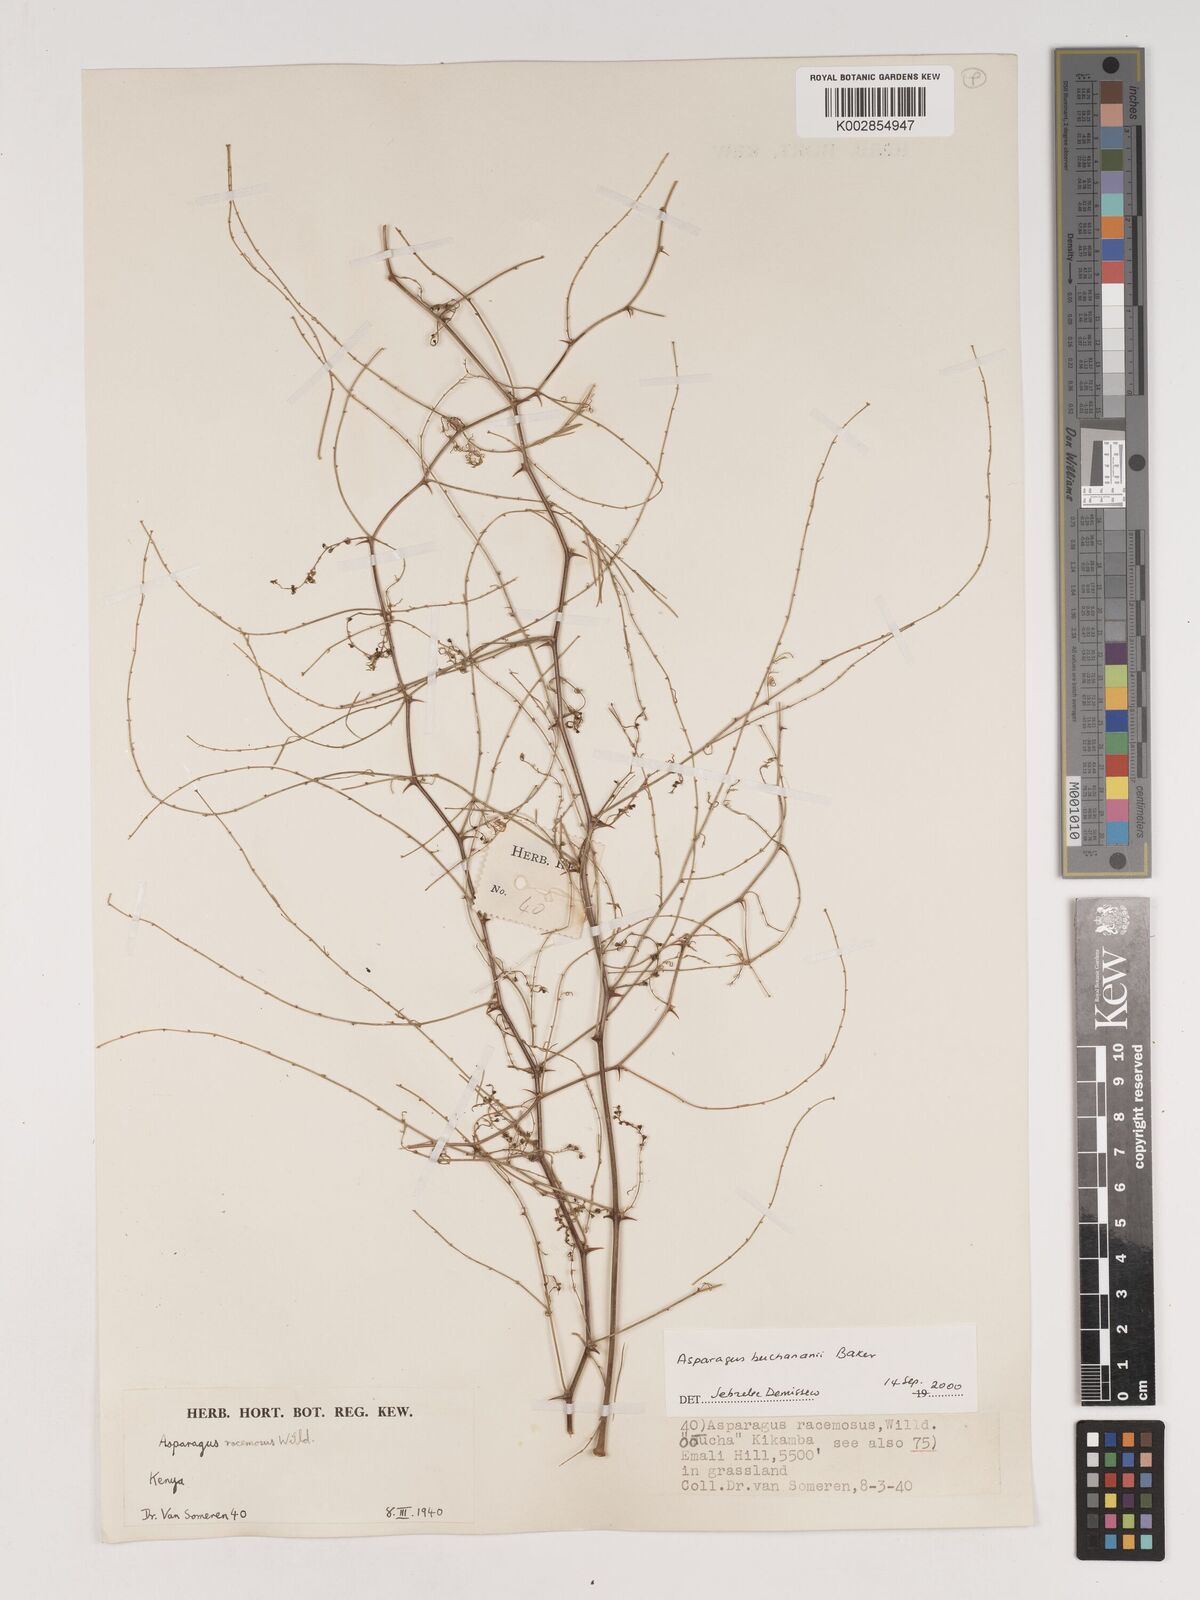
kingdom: Plantae
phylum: Tracheophyta
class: Liliopsida
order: Asparagales
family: Asparagaceae
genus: Asparagus
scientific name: Asparagus buchananii
